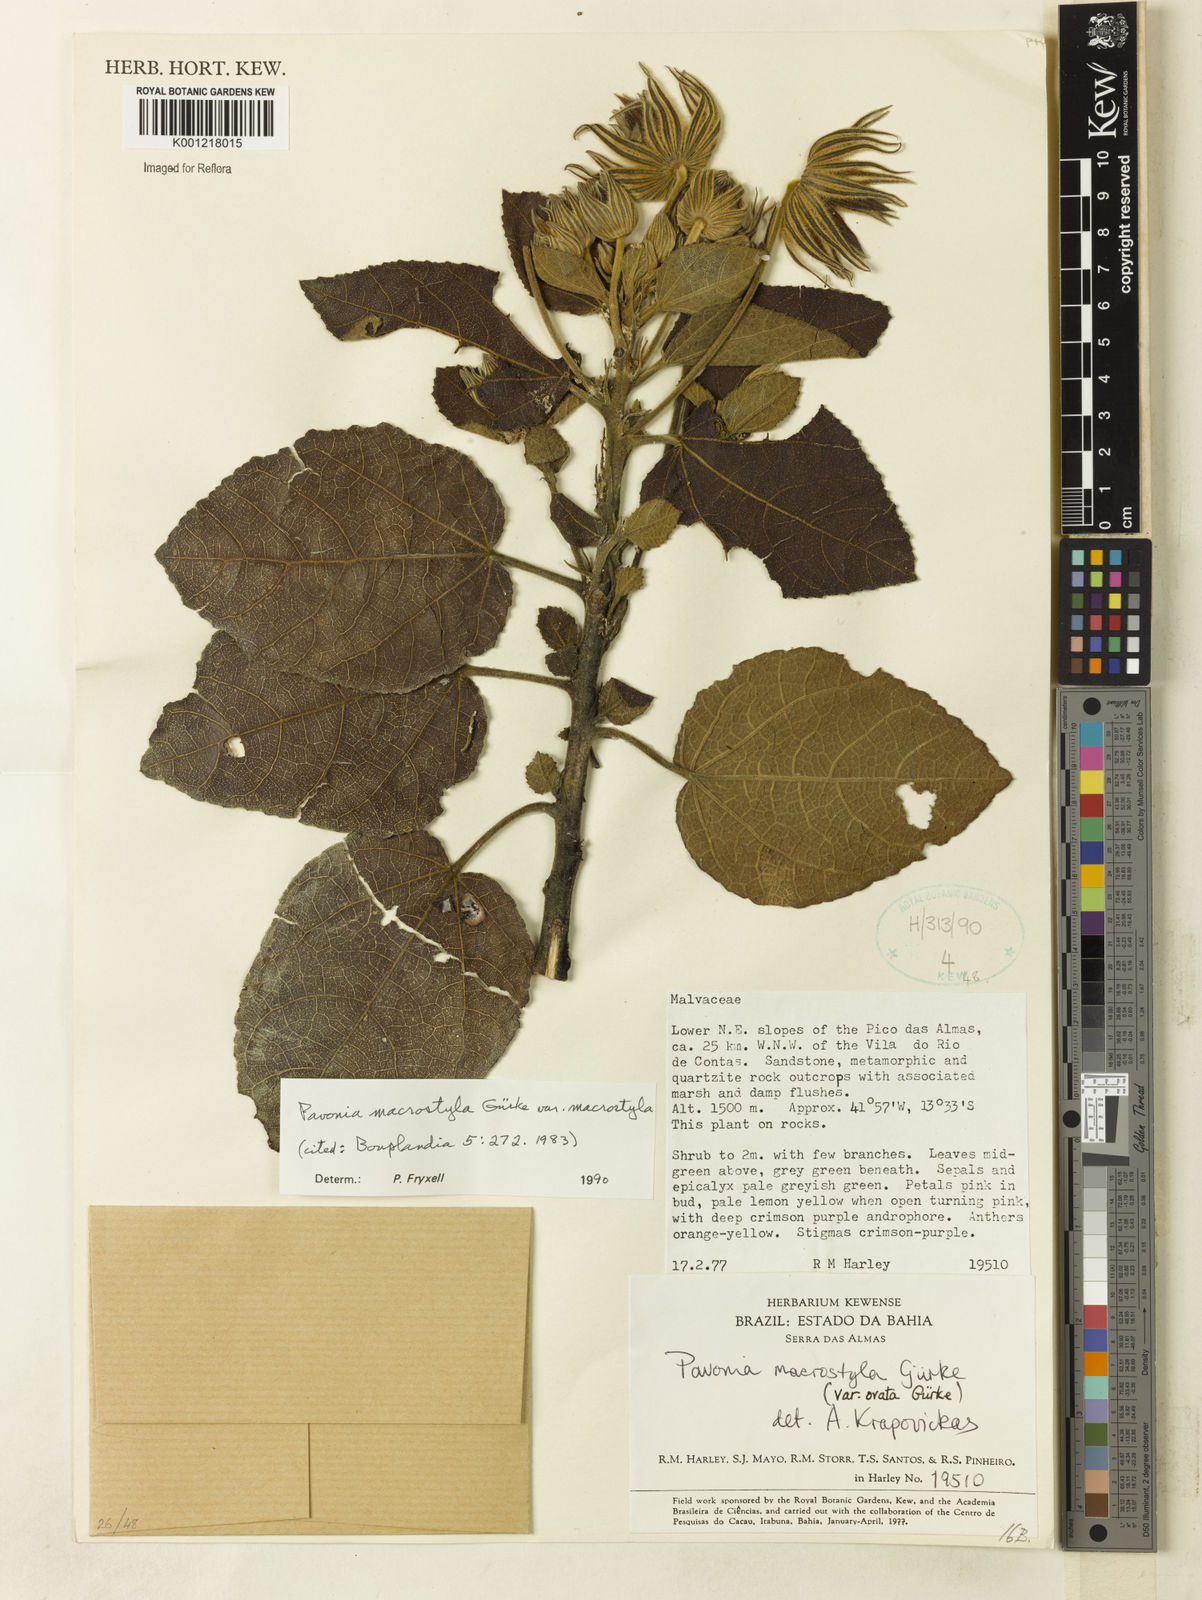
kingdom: Plantae
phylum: Tracheophyta
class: Magnoliopsida
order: Malvales
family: Malvaceae
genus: Pavonia
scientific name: Pavonia
